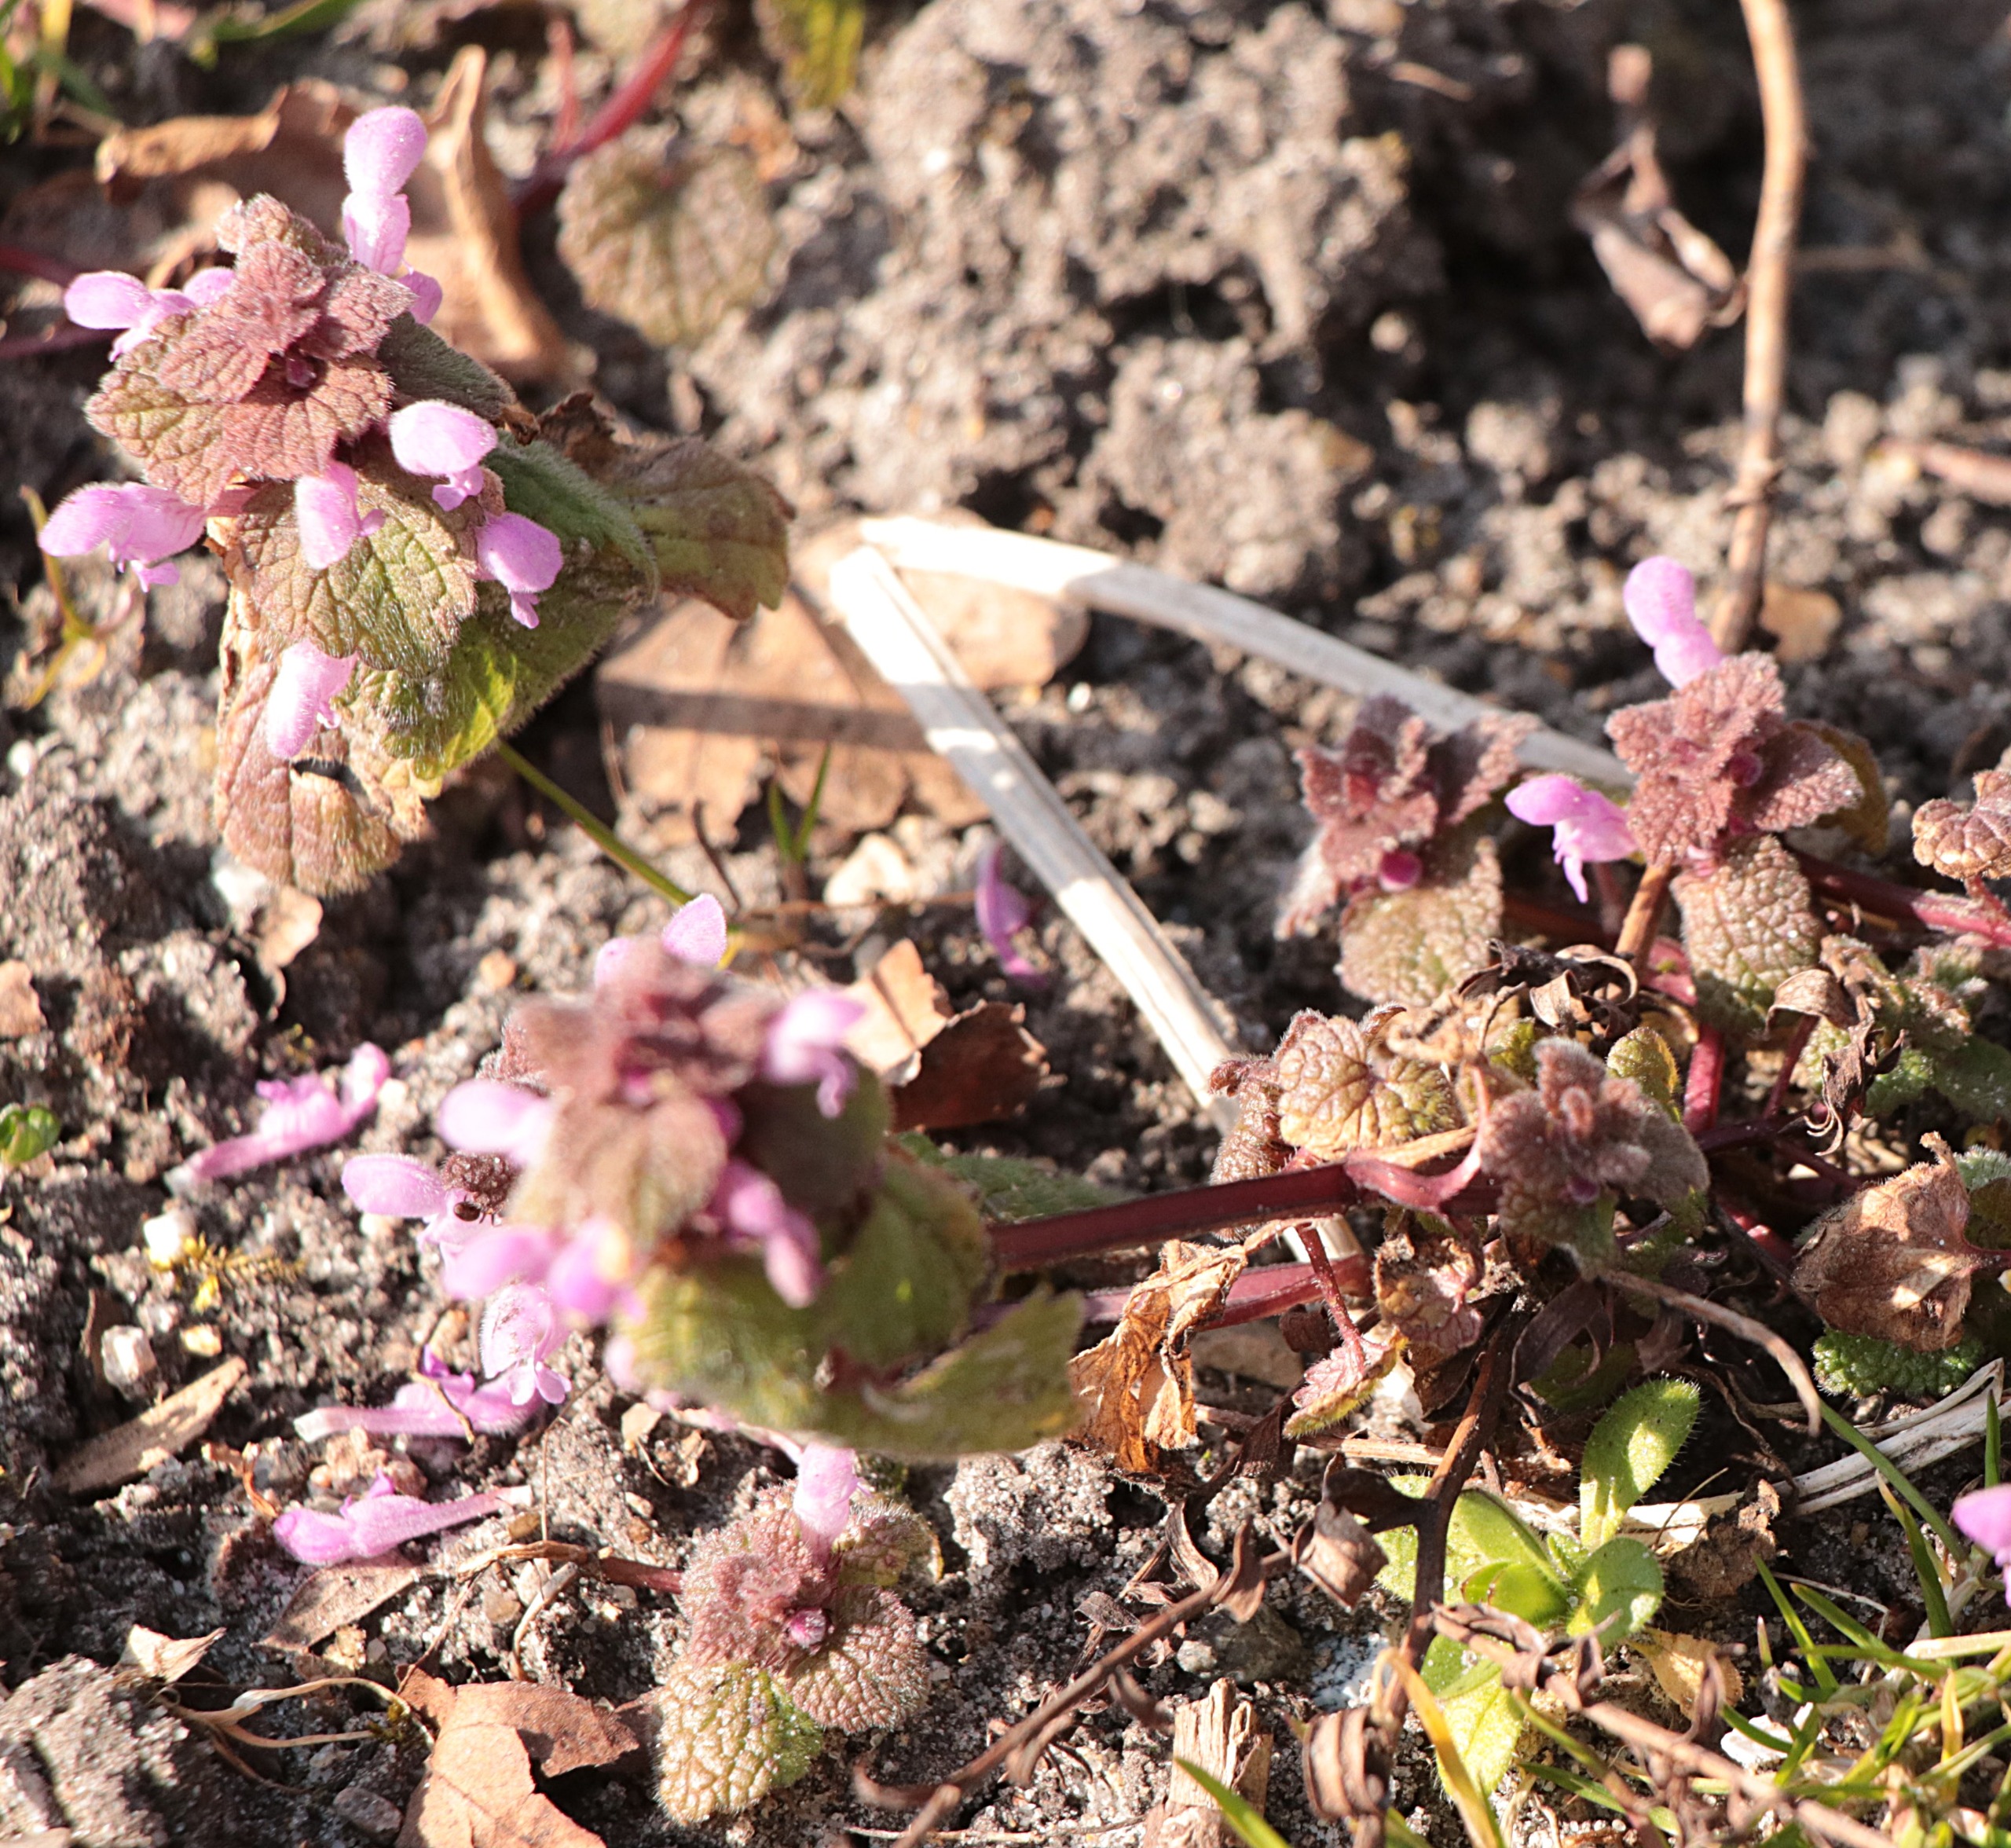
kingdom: Plantae
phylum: Tracheophyta
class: Magnoliopsida
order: Lamiales
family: Lamiaceae
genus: Lamium
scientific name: Lamium purpureum
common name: Rød tvetand
